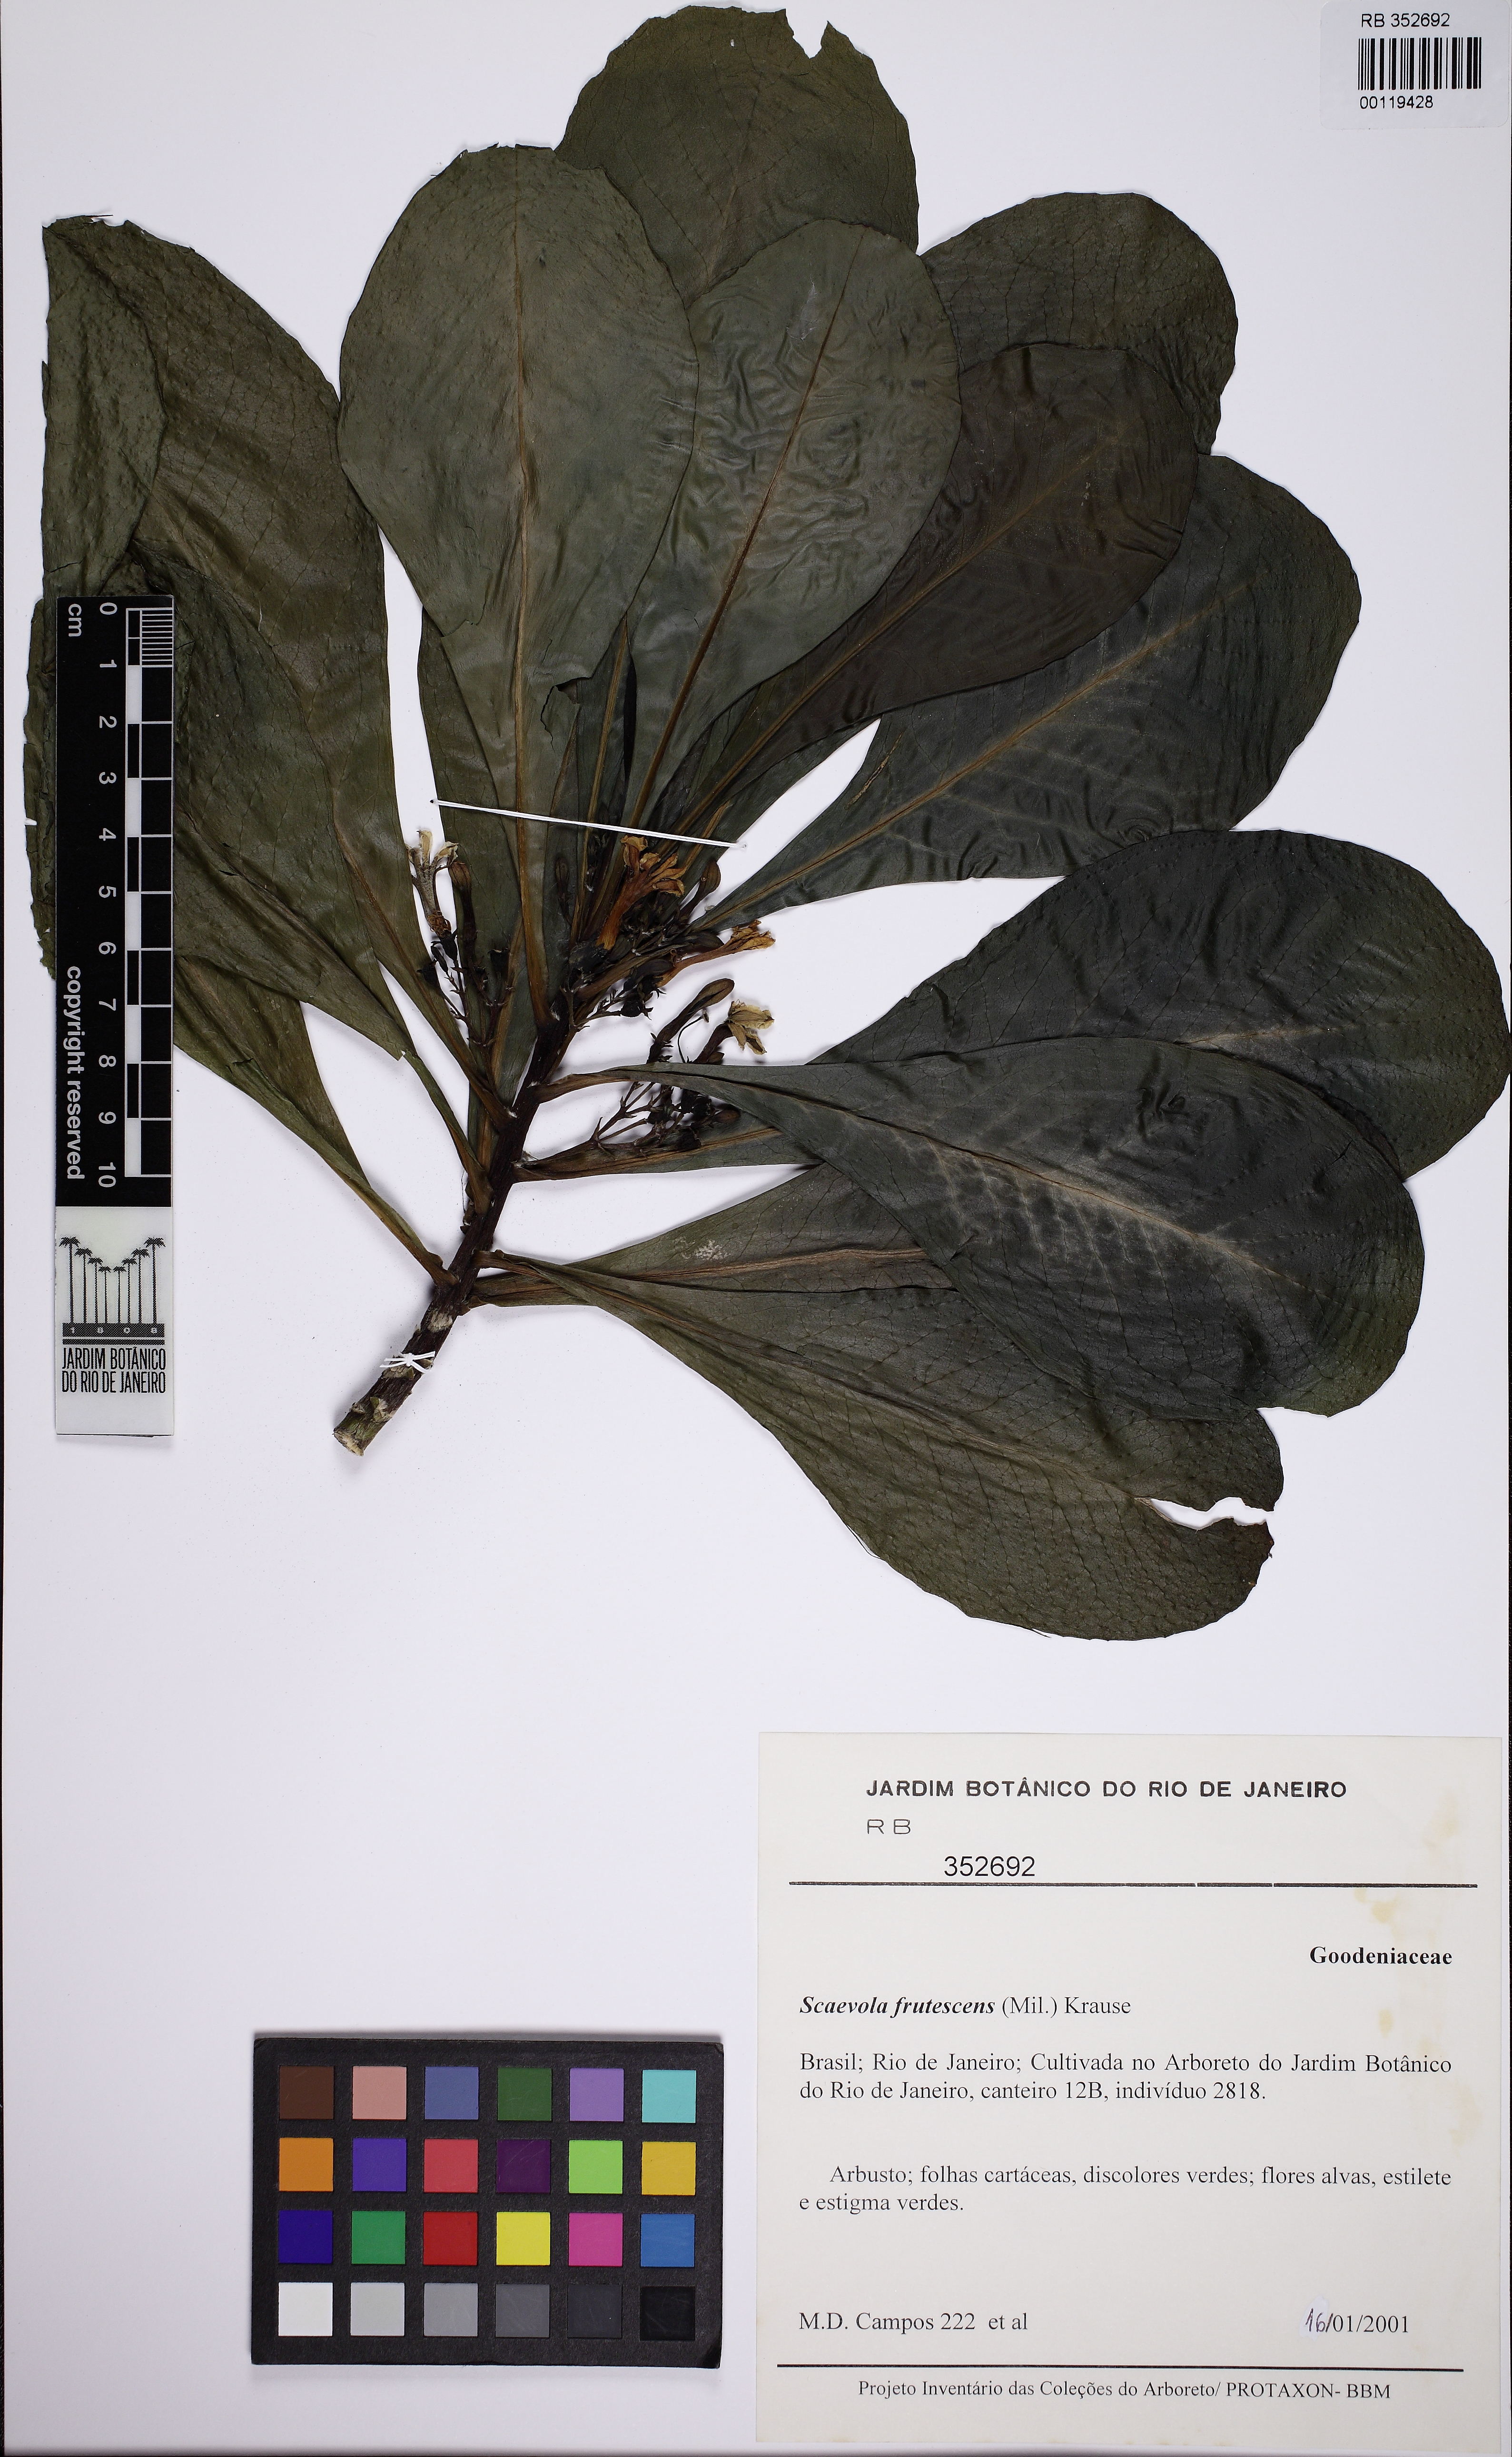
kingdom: Plantae
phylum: Tracheophyta
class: Magnoliopsida
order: Asterales
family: Goodeniaceae
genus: Scaevola
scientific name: Scaevola taccada
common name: Sea lettucetree
